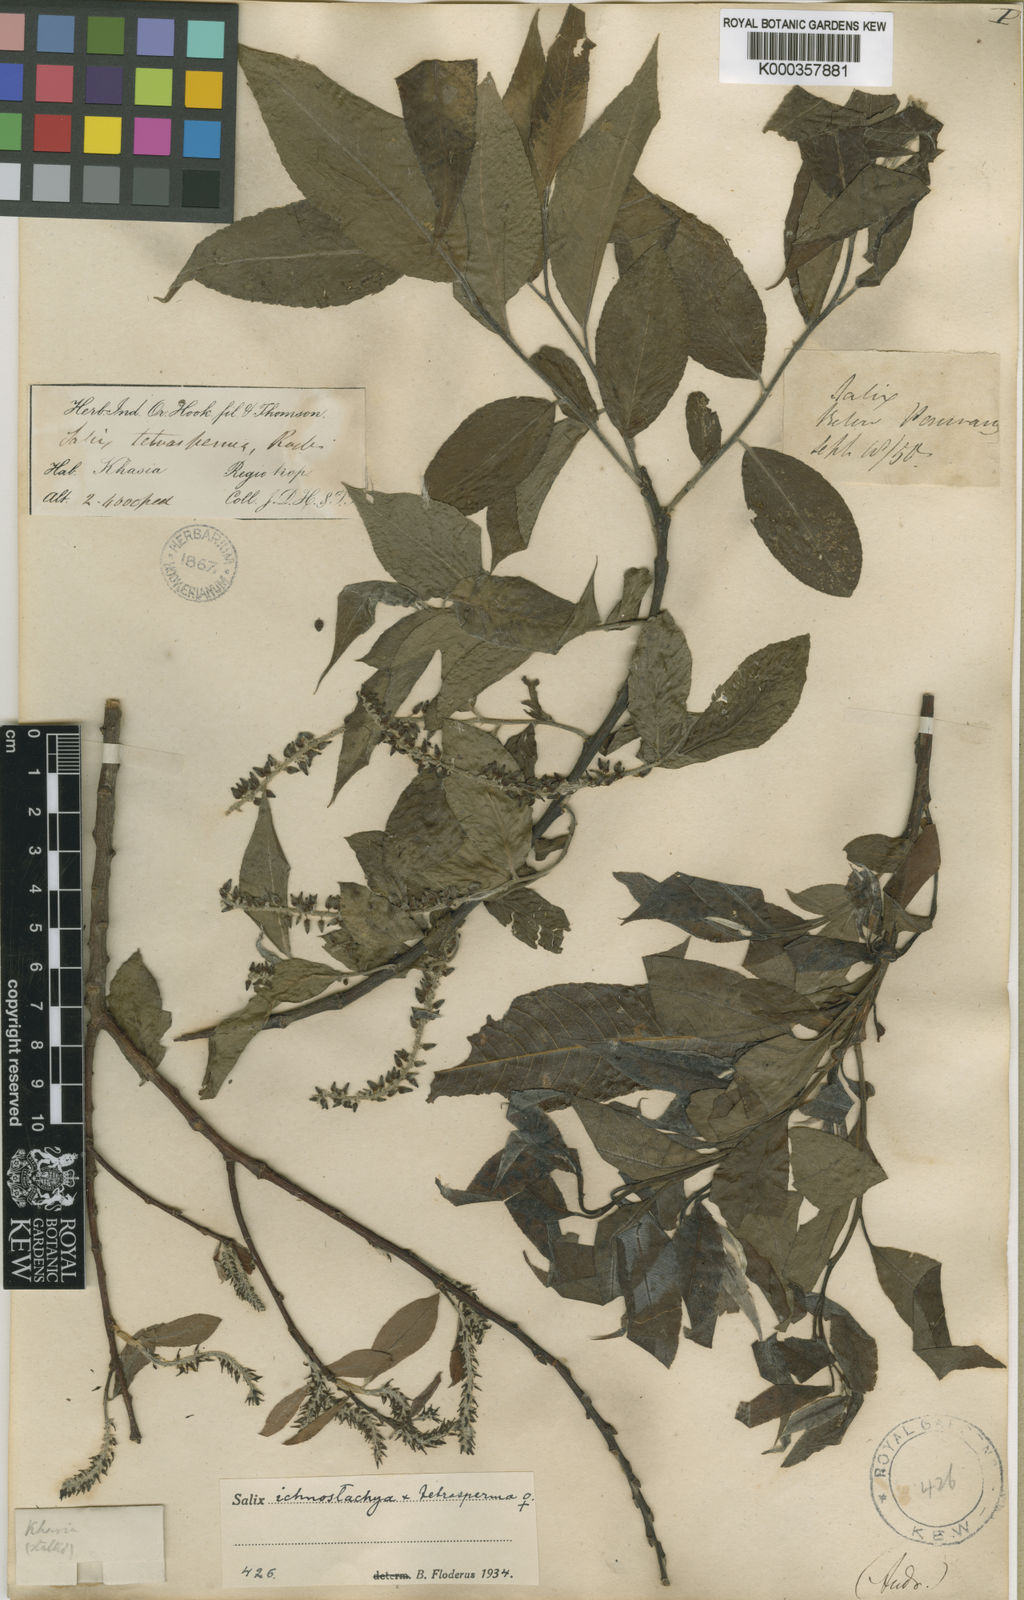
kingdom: Plantae
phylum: Tracheophyta
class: Magnoliopsida
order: Malpighiales
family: Salicaceae
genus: Salix
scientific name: Salix tetrasperma
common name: Indian willow
